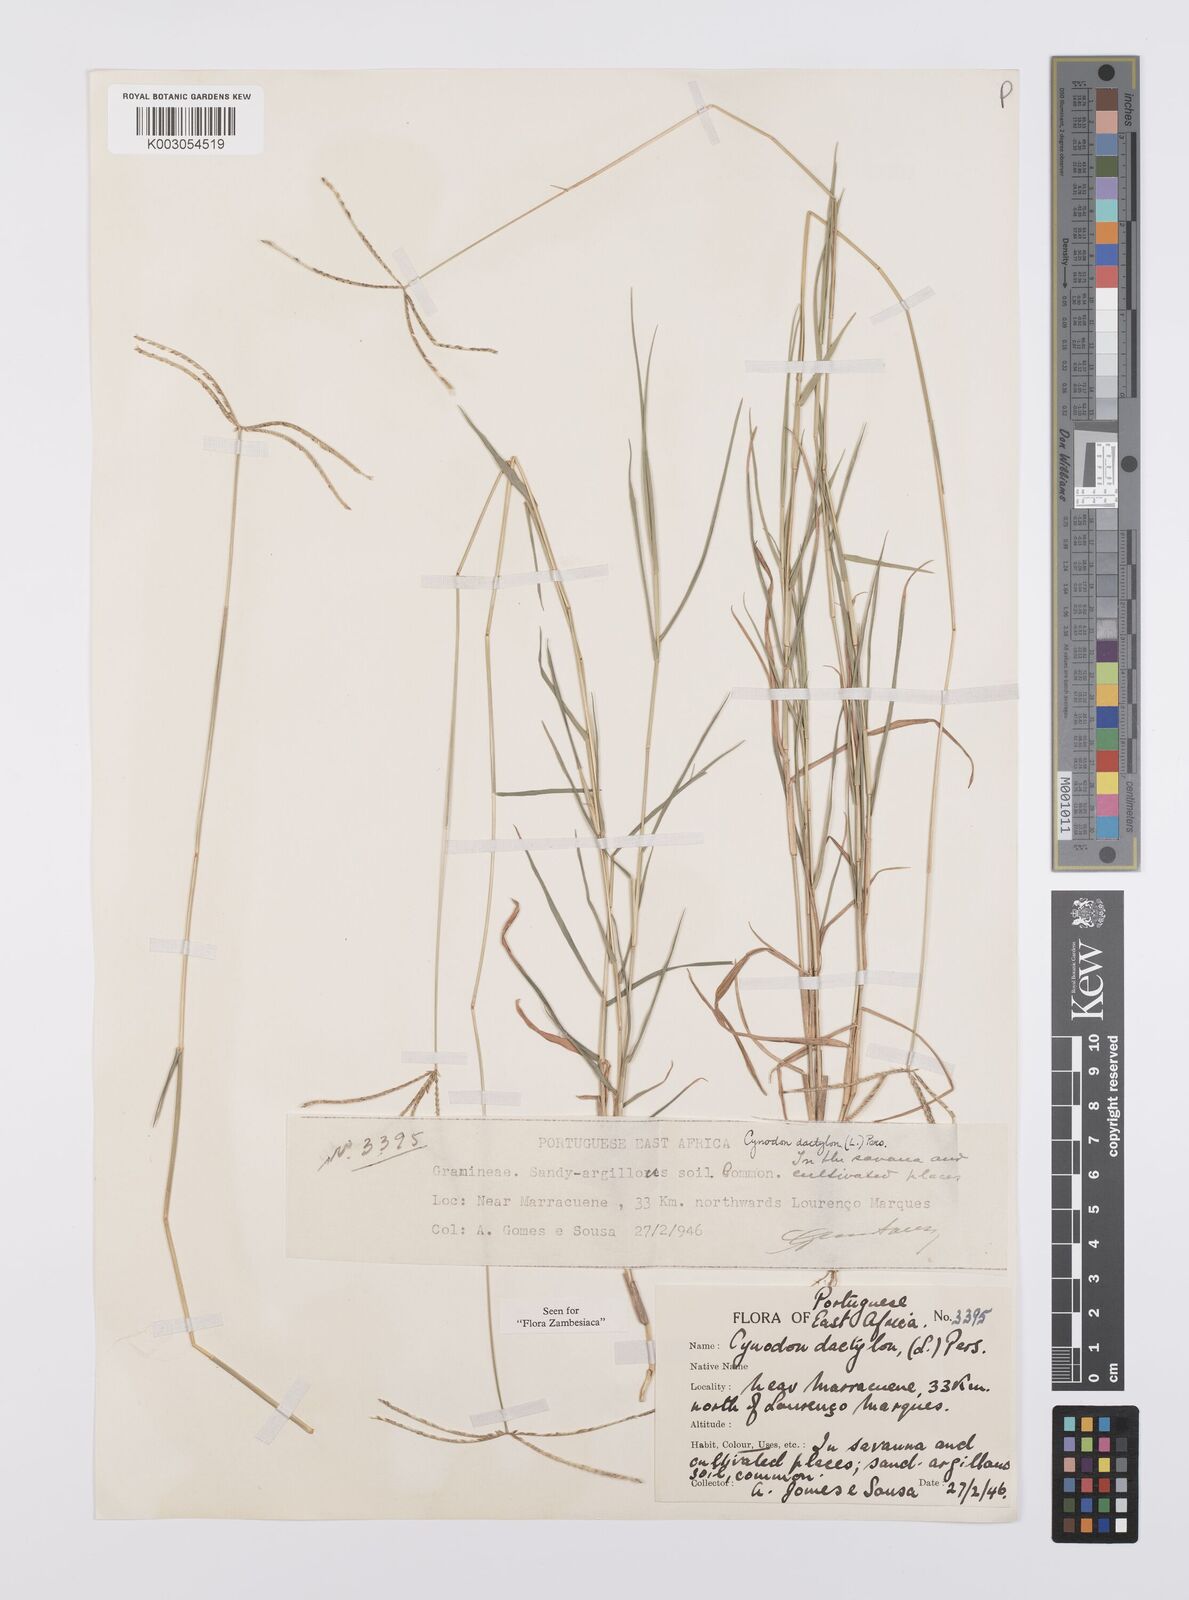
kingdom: Plantae
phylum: Tracheophyta
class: Liliopsida
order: Poales
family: Poaceae
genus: Cynodon
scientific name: Cynodon dactylon
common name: Bermuda grass
